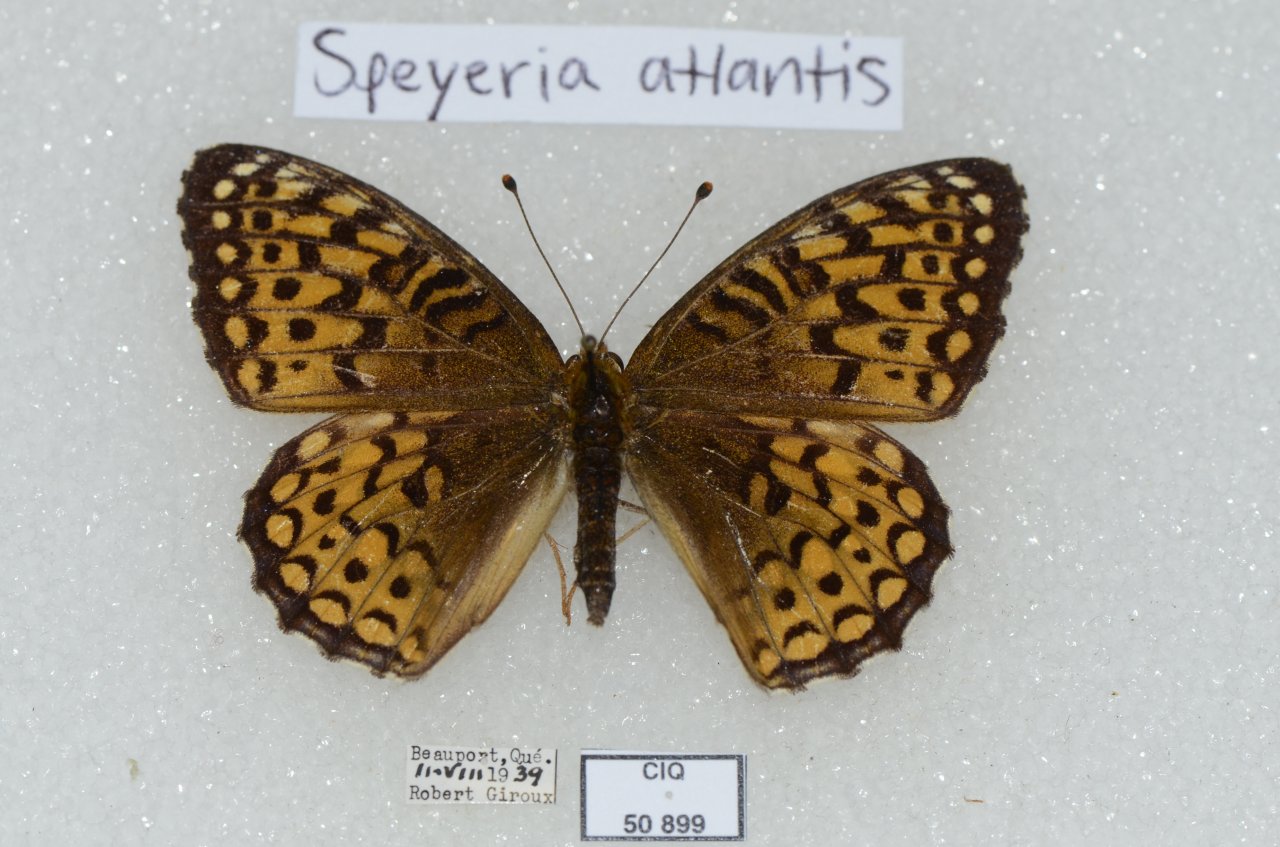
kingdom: Animalia
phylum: Arthropoda
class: Insecta
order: Lepidoptera
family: Nymphalidae
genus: Speyeria
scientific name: Speyeria atlantis
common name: Atlantis Fritillary
